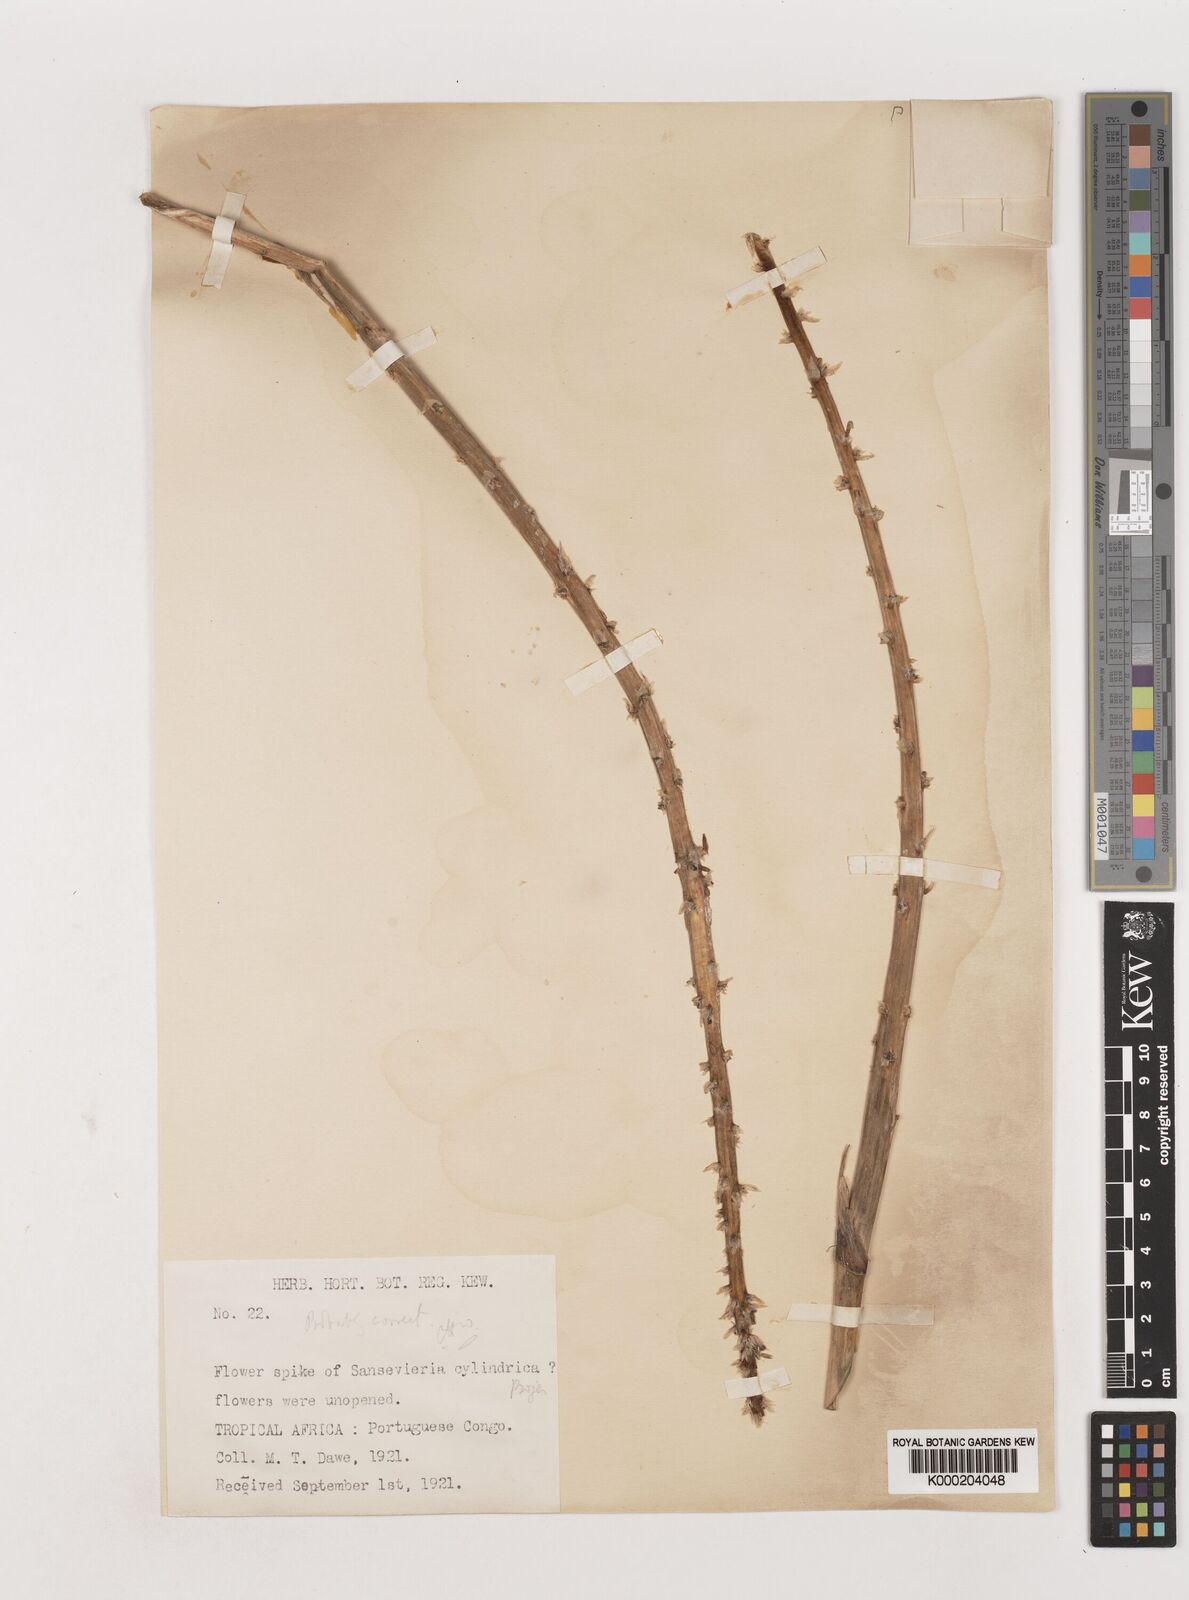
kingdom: Plantae
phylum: Tracheophyta
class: Liliopsida
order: Asparagales
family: Asparagaceae
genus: Dracaena
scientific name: Dracaena angolensis
